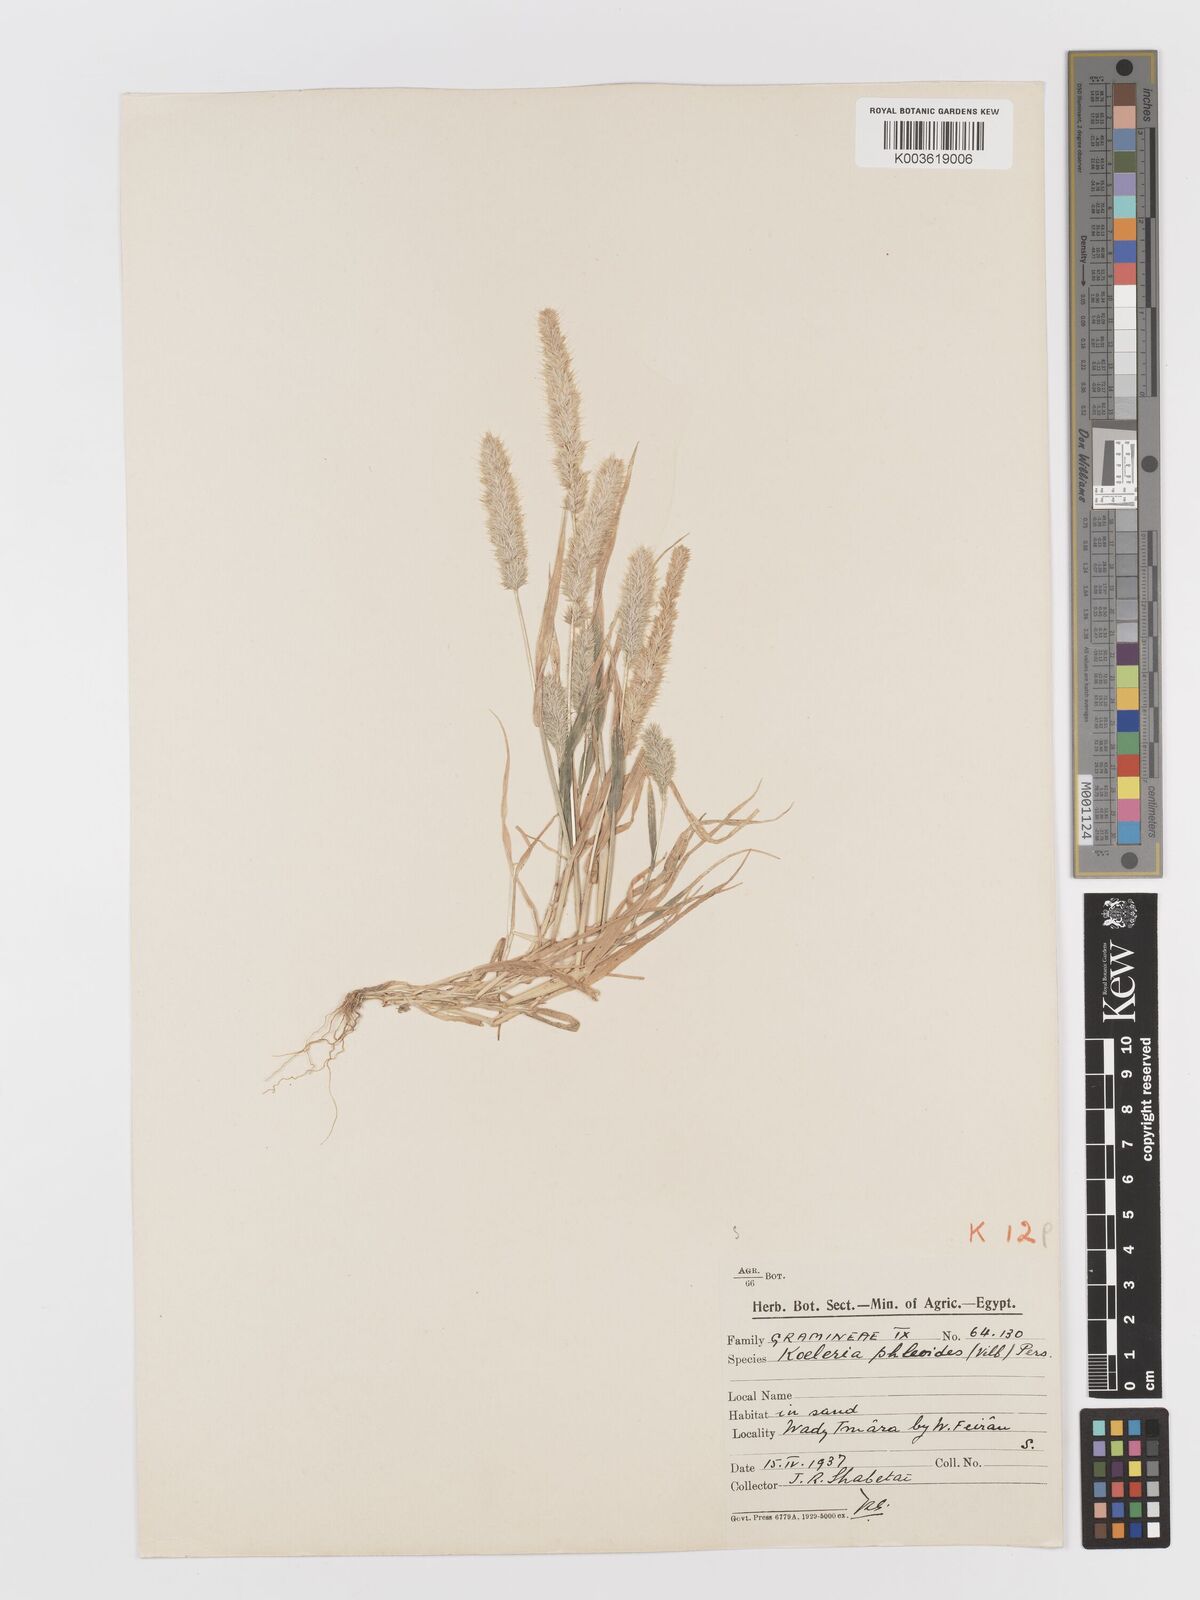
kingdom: Plantae
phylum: Tracheophyta
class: Liliopsida
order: Poales
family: Poaceae
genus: Rostraria
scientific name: Rostraria cristata
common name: Mediterranean hair-grass
